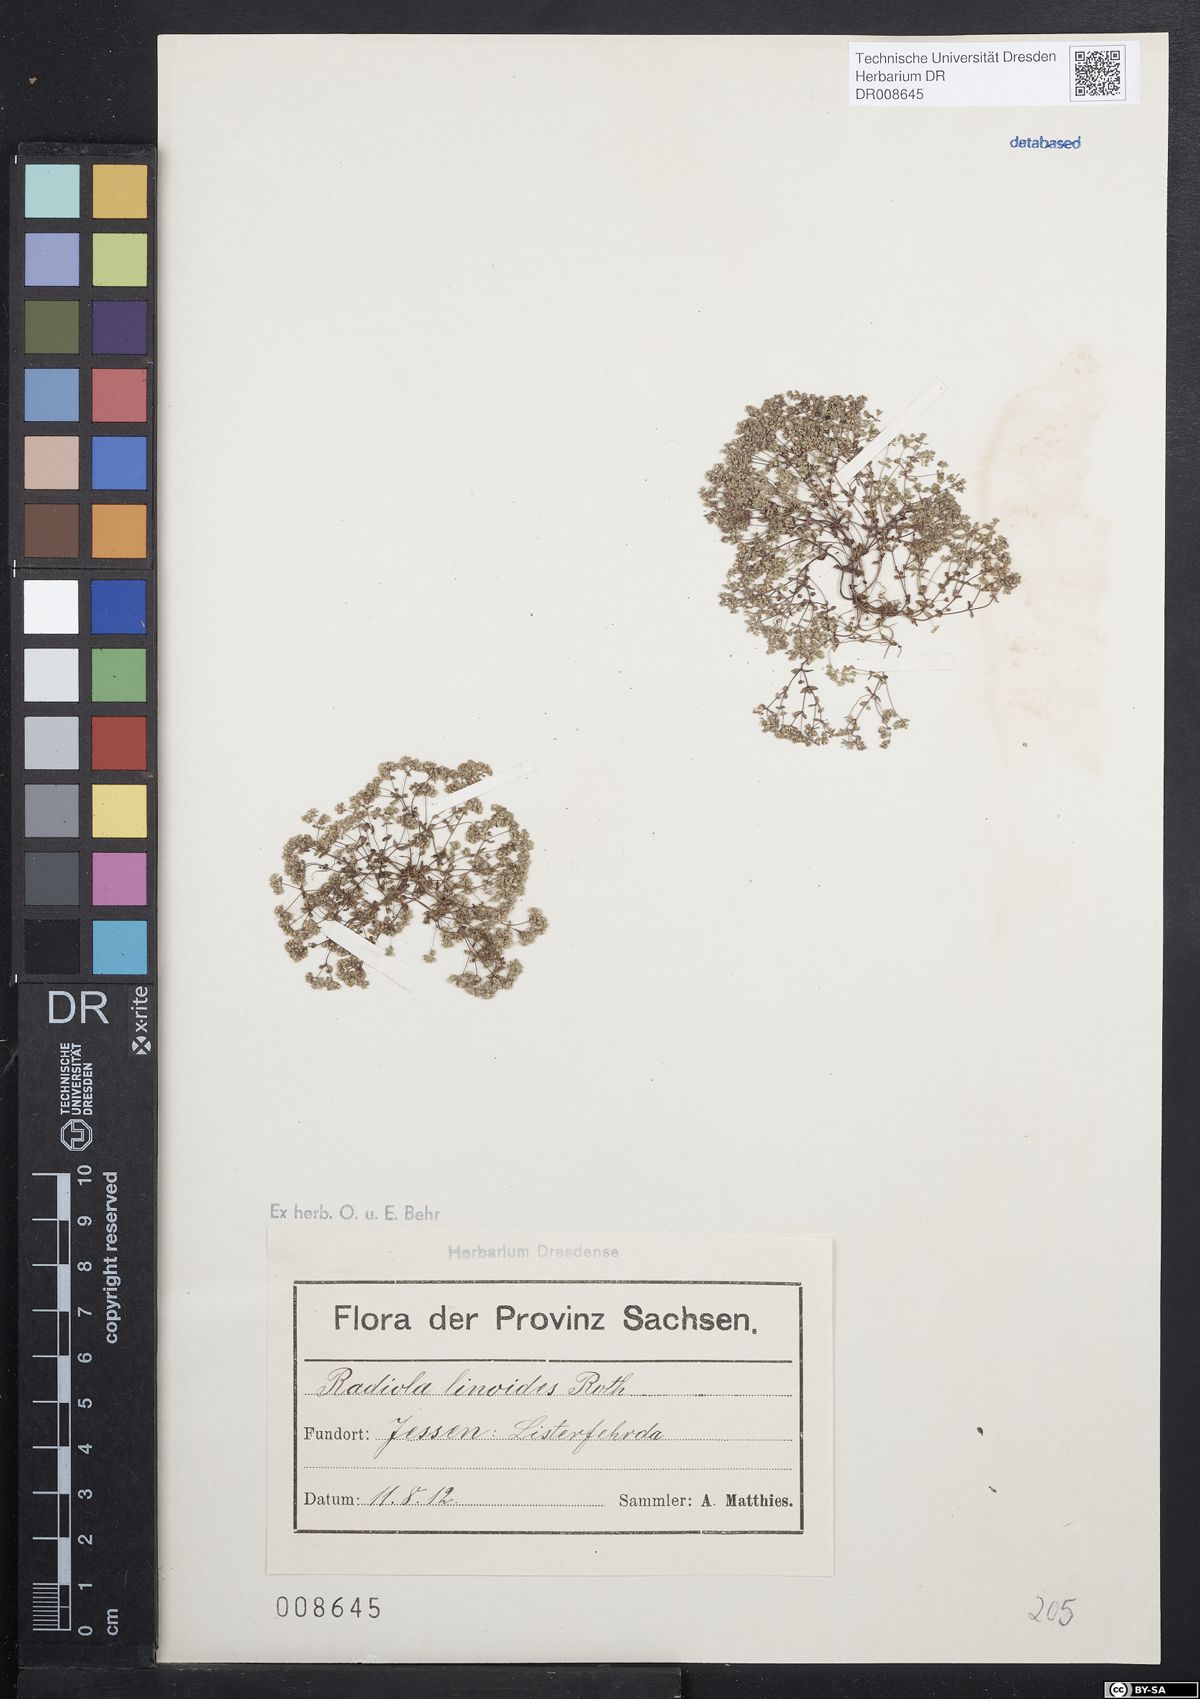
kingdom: Plantae
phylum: Tracheophyta
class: Magnoliopsida
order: Malpighiales
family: Linaceae
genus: Radiola
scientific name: Radiola linoides
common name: Allseed
